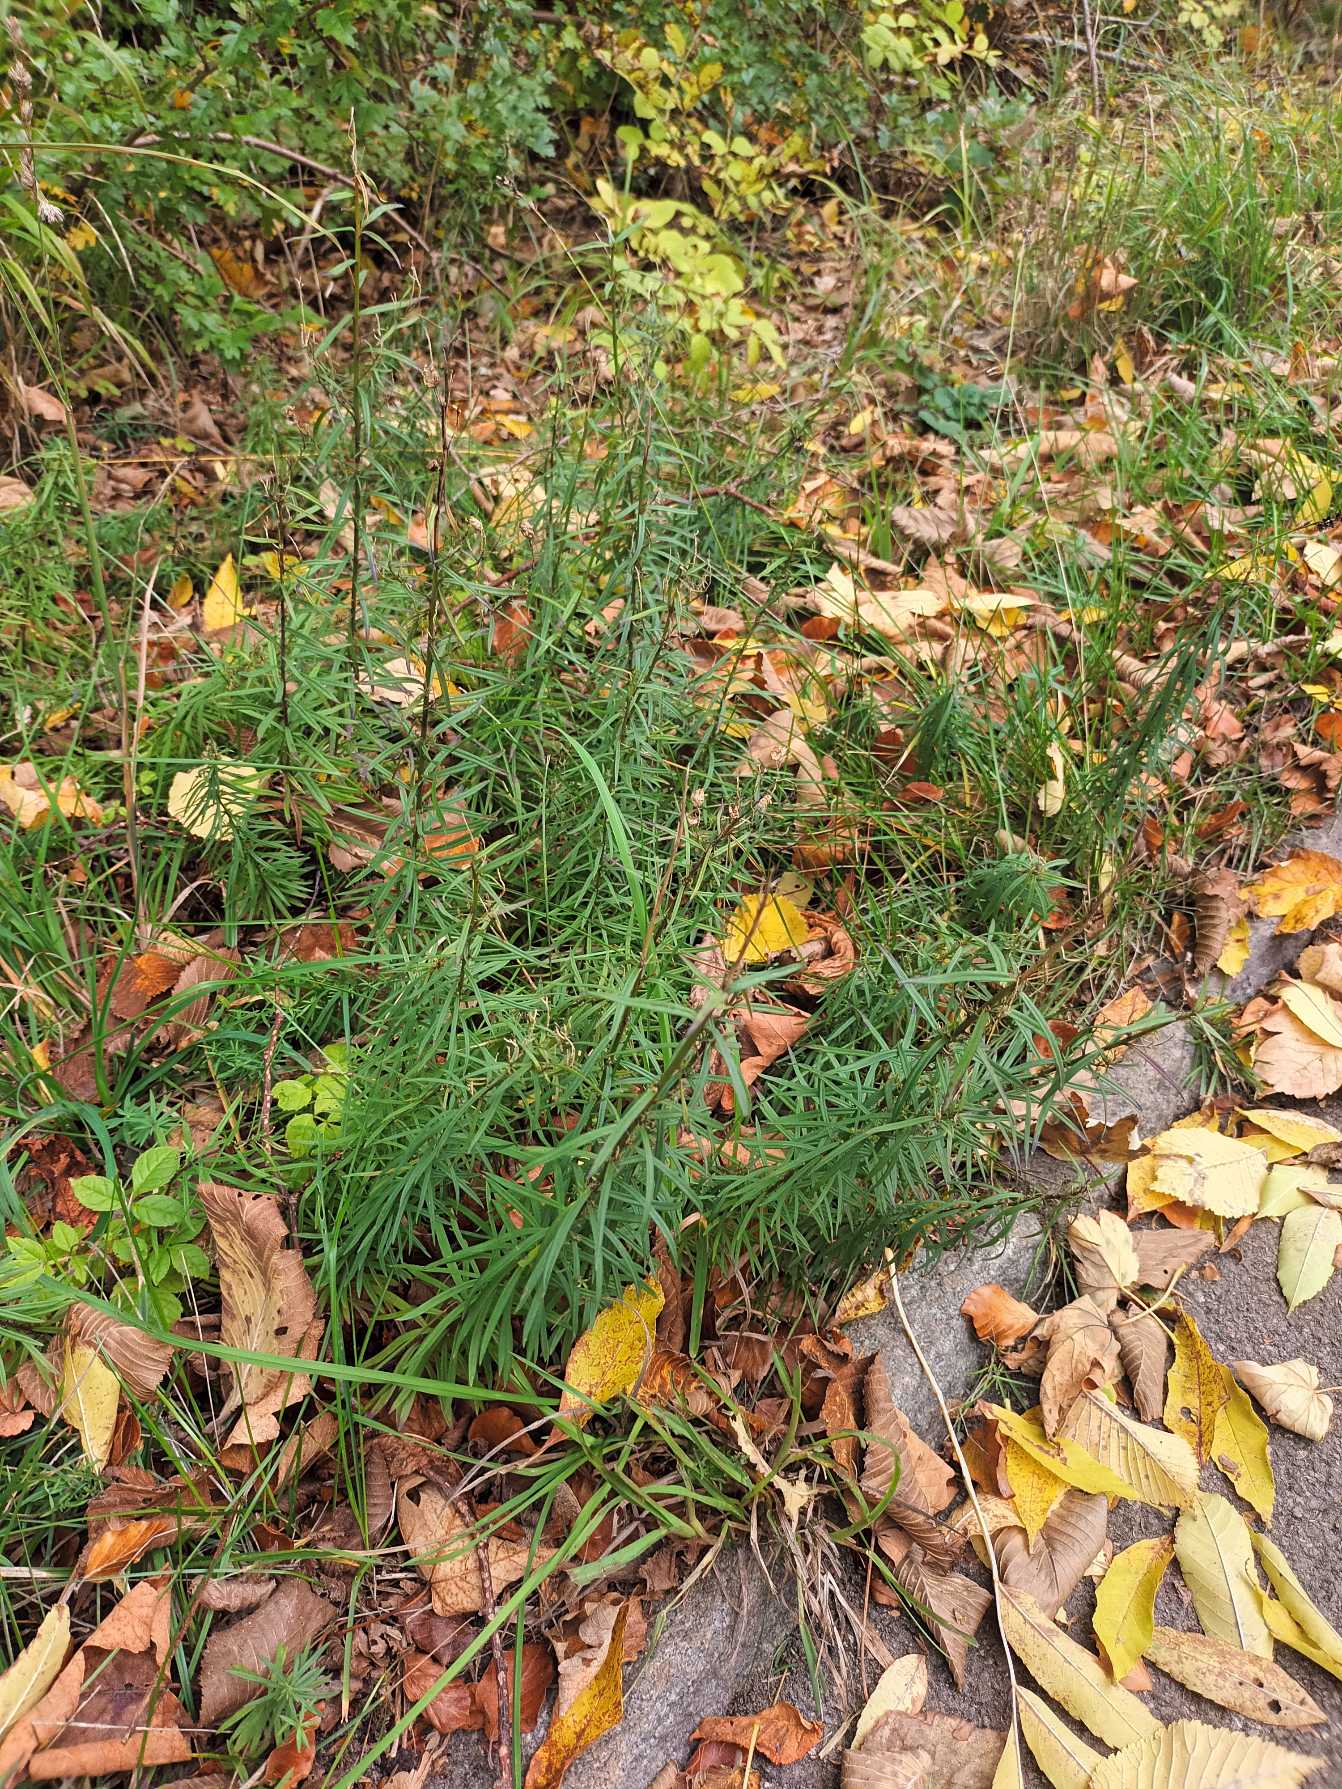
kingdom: Plantae
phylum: Tracheophyta
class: Magnoliopsida
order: Lamiales
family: Plantaginaceae
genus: Linaria
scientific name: Linaria vulgaris
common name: Almindelig torskemund
